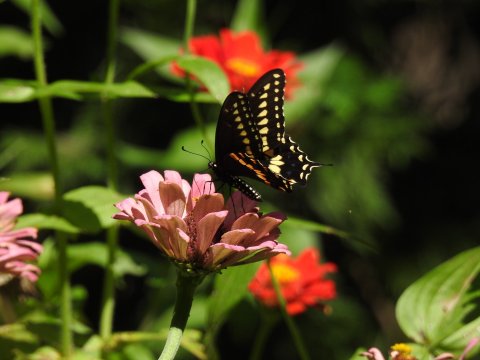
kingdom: Animalia
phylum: Arthropoda
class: Insecta
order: Lepidoptera
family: Papilionidae
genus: Papilio
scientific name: Papilio polyxenes
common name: Black Swallowtail
